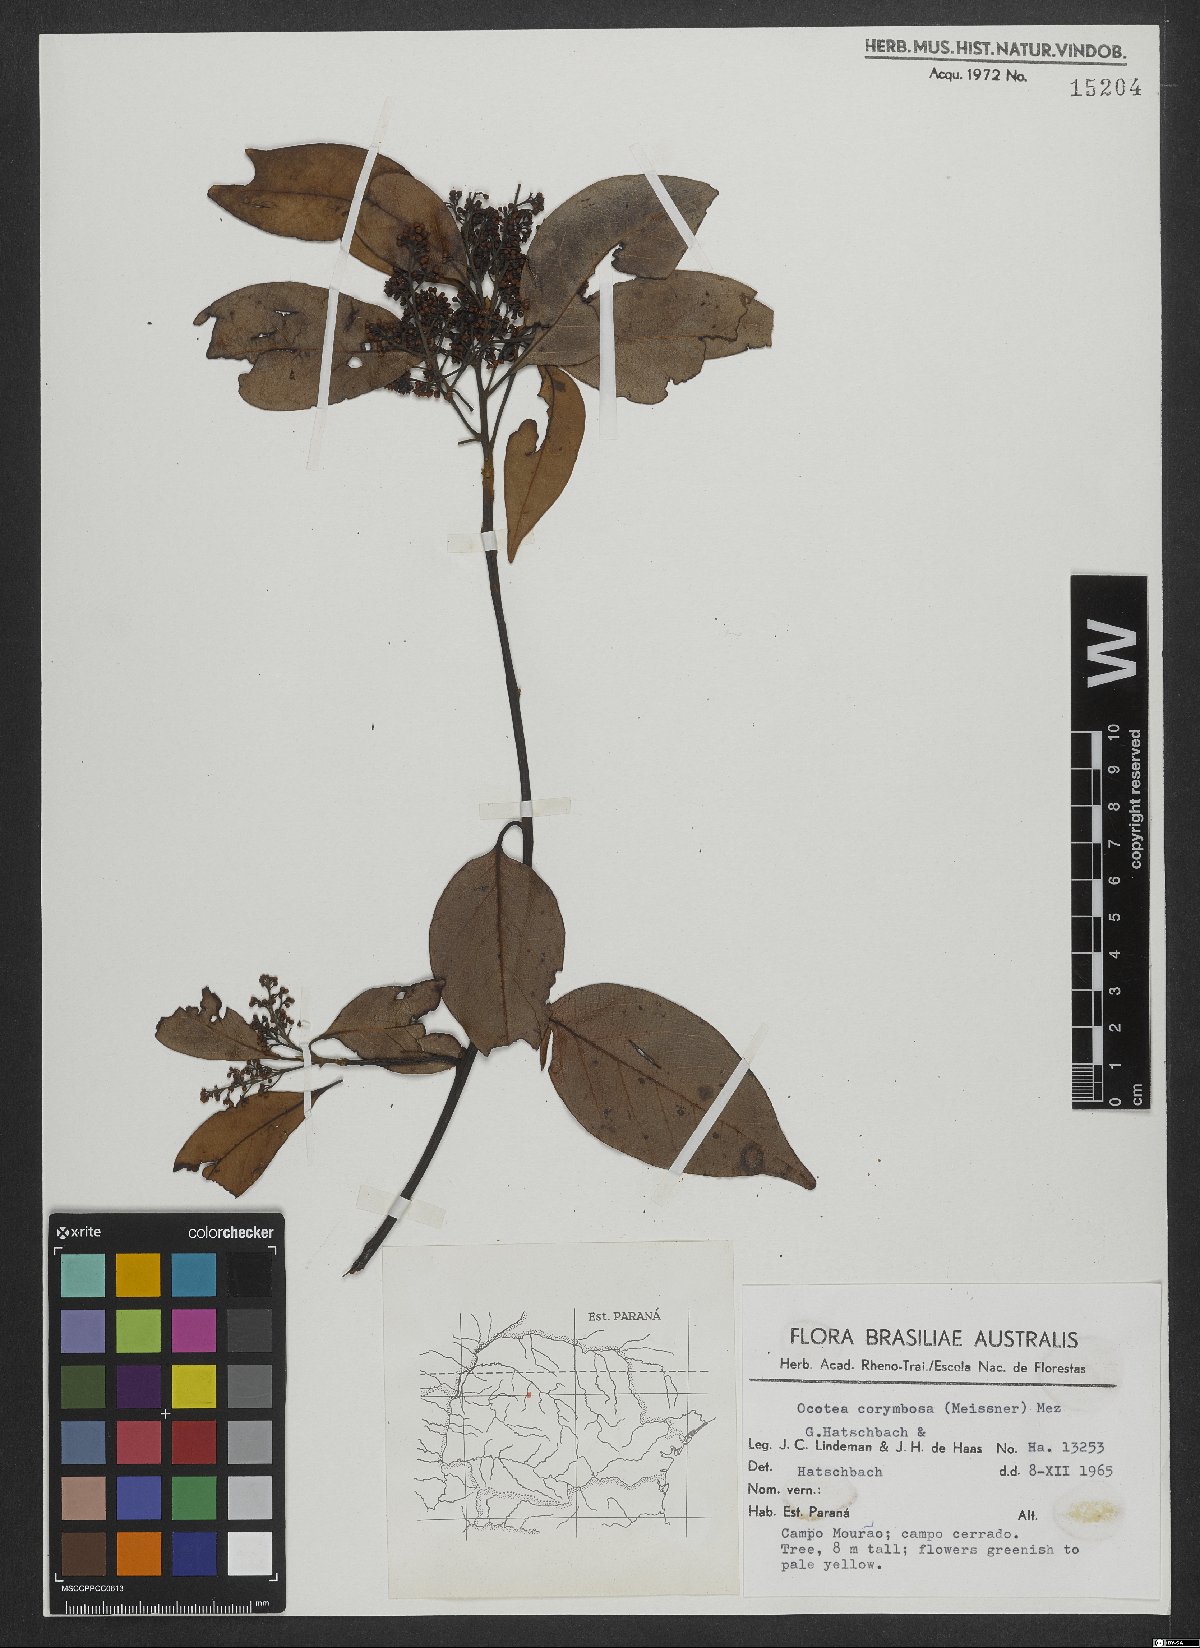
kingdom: Plantae
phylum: Tracheophyta
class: Magnoliopsida
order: Laurales
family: Lauraceae
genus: Mespilodaphne
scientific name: Mespilodaphne corymbosa
